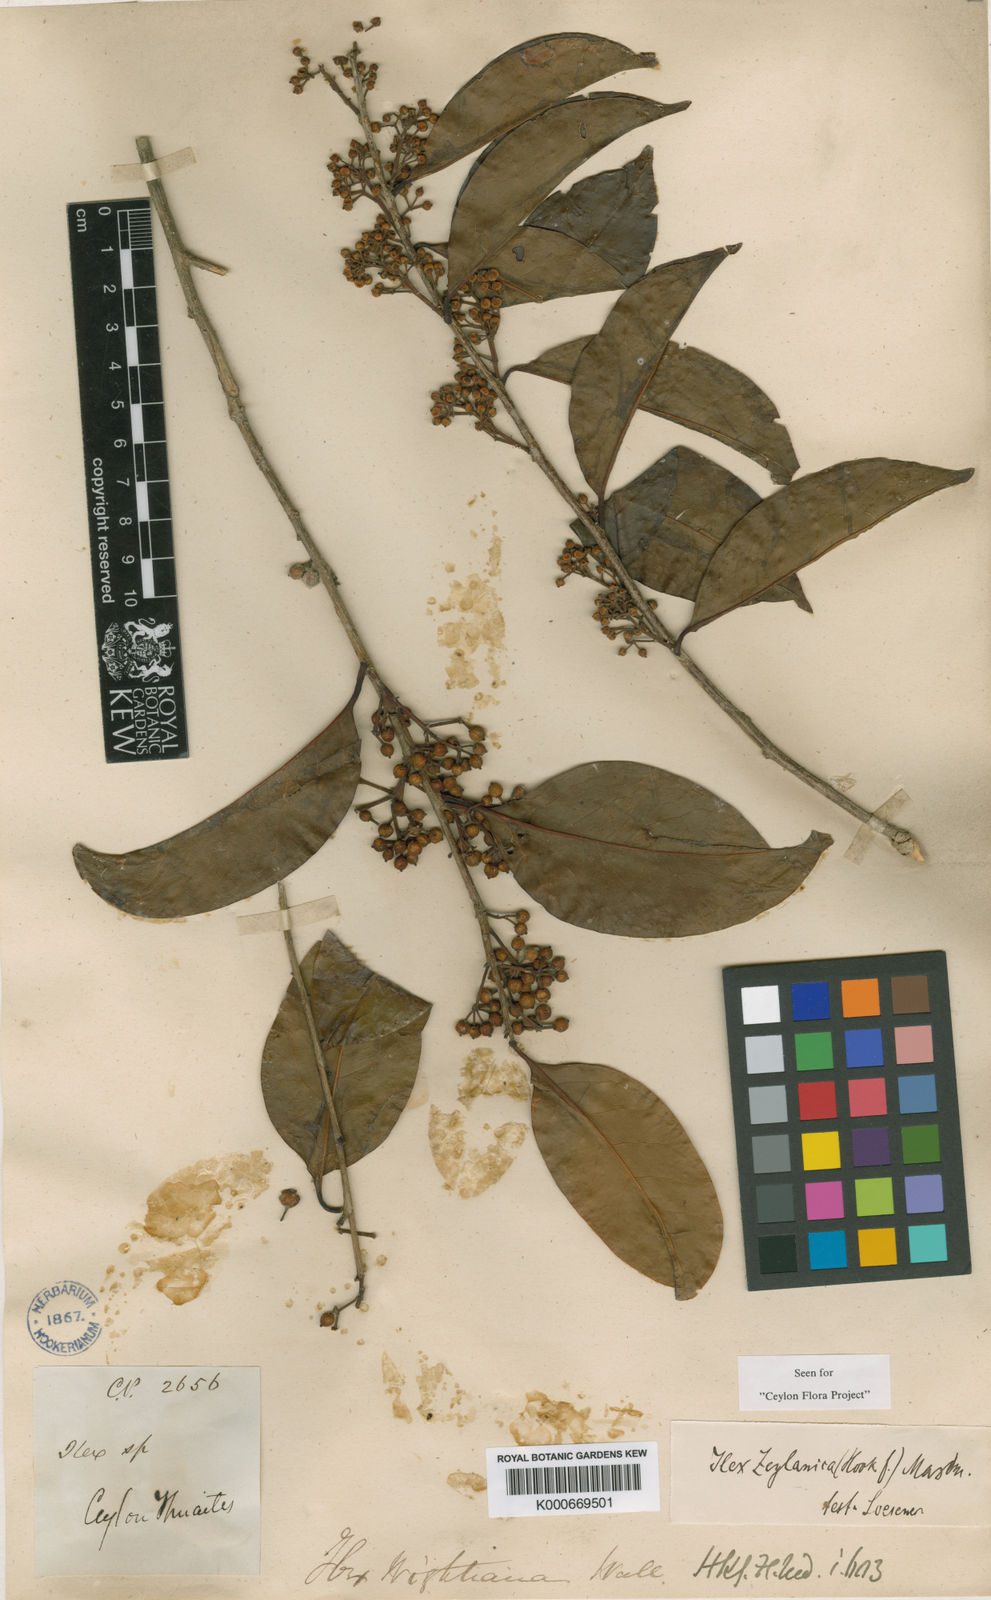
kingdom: Plantae
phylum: Tracheophyta
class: Magnoliopsida
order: Aquifoliales
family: Aquifoliaceae
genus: Ilex
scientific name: Ilex zeylanica
